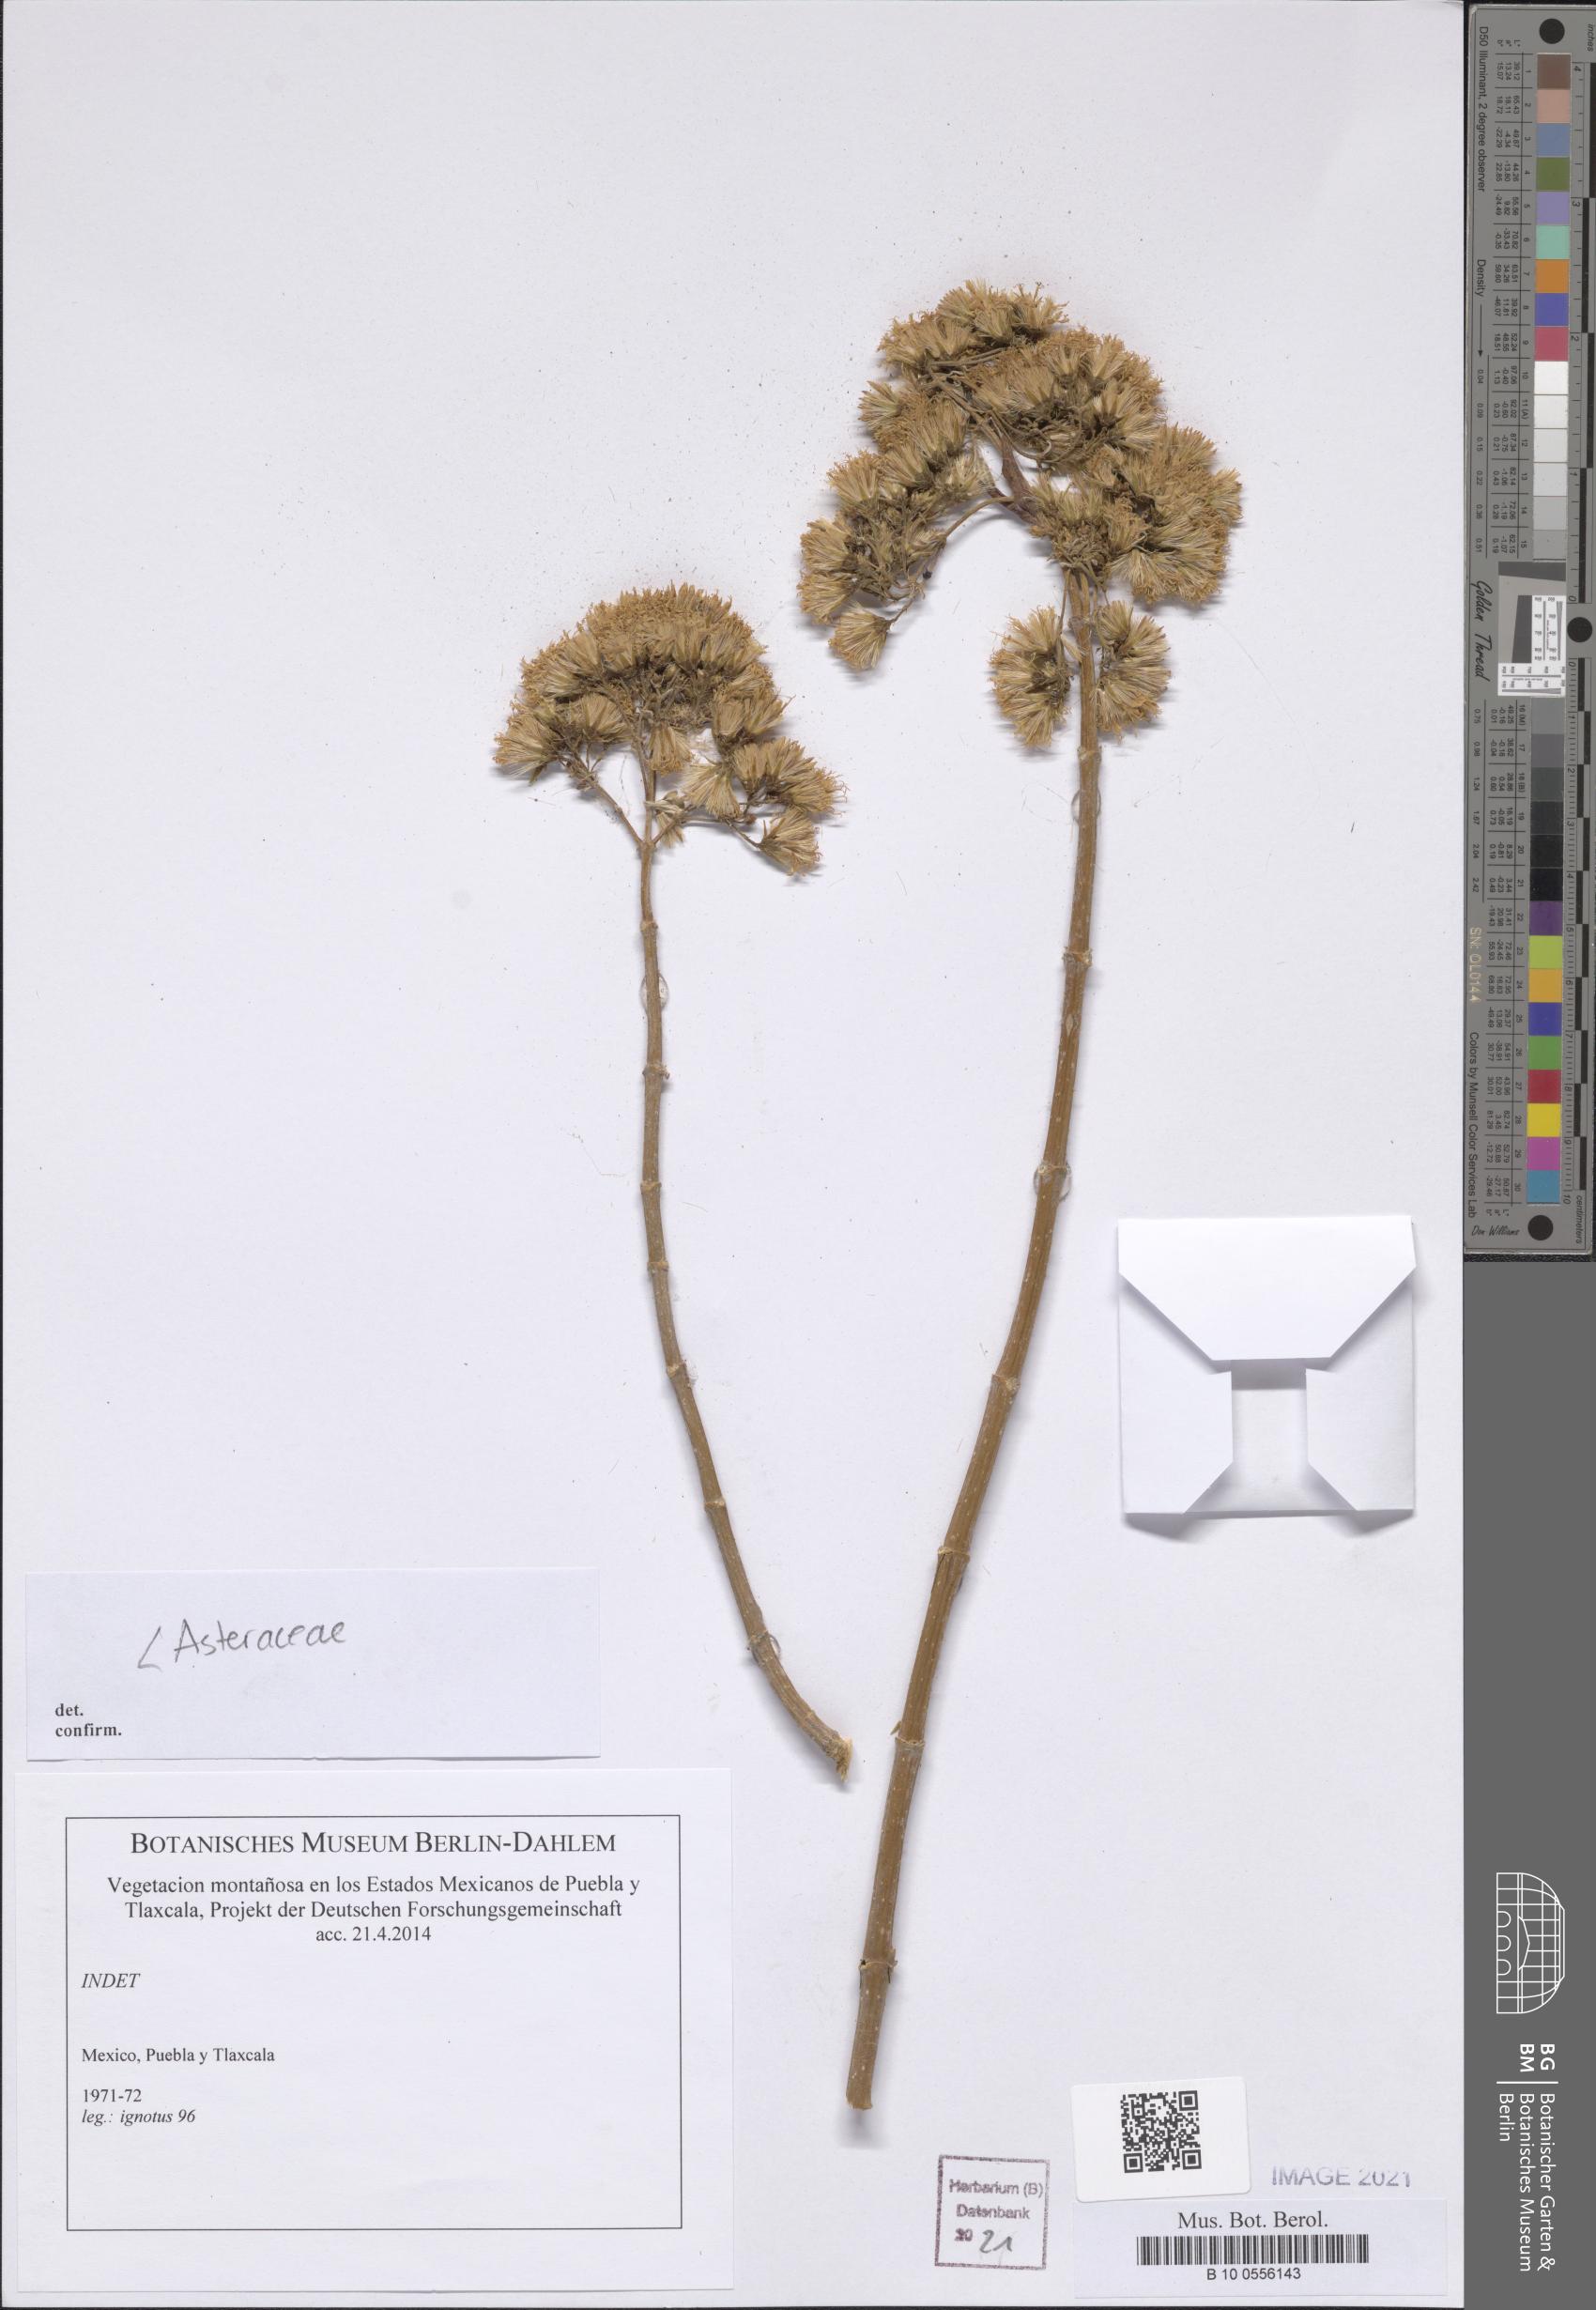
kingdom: Plantae
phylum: Tracheophyta
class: Magnoliopsida
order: Asterales
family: Asteraceae
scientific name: Asteraceae
